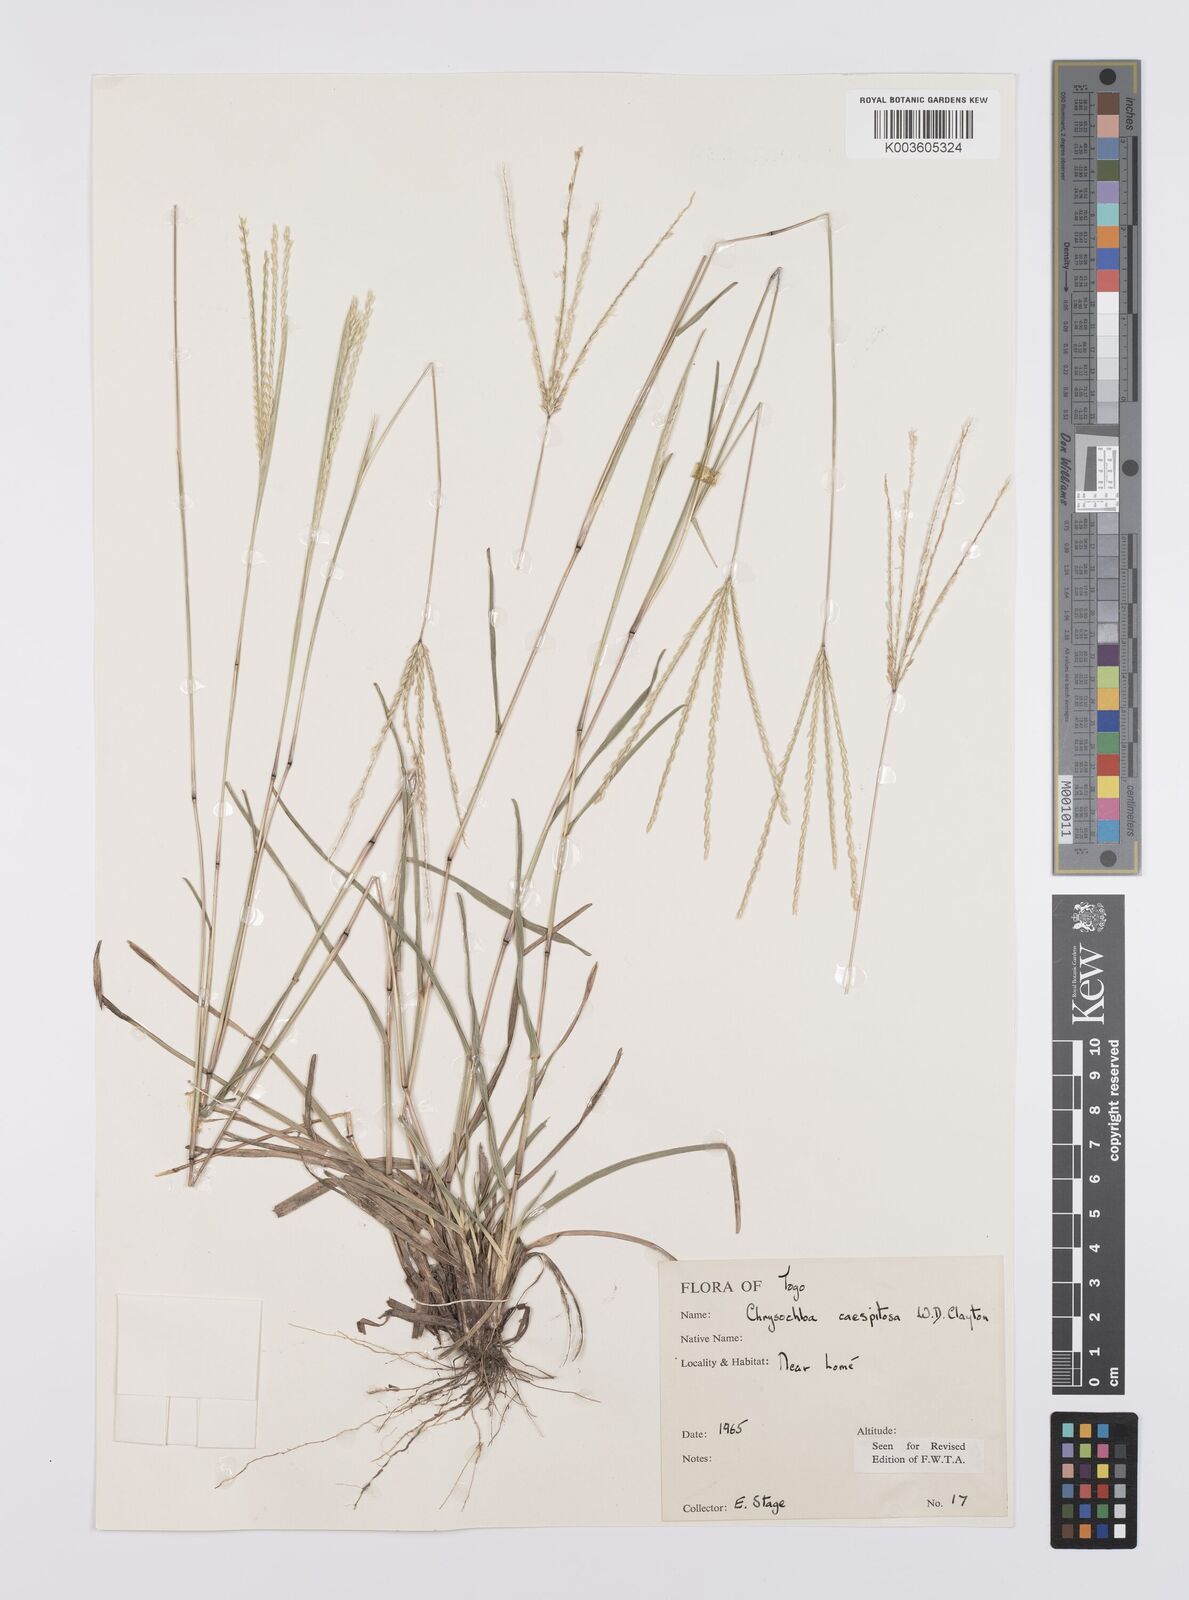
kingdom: Plantae
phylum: Tracheophyta
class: Liliopsida
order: Poales
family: Poaceae
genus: Chrysochloa
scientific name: Chrysochloa hindsii
